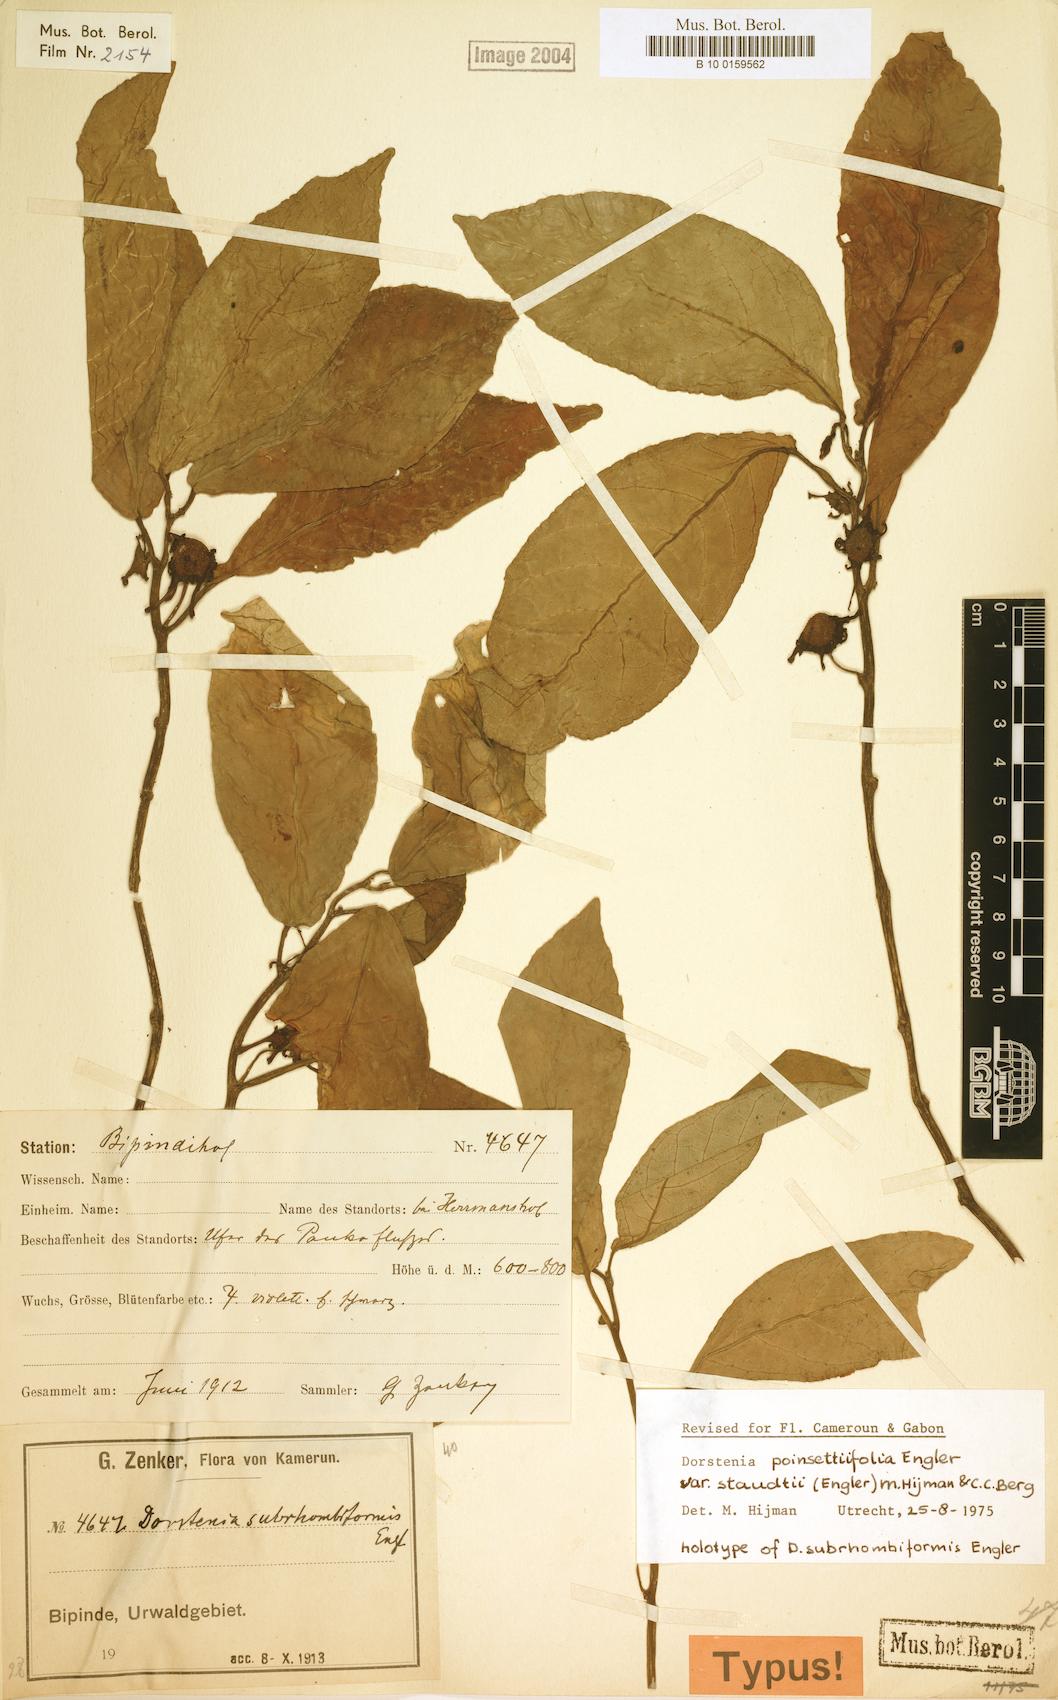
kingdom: Plantae
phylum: Tracheophyta
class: Magnoliopsida
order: Rosales
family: Moraceae
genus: Dorstenia
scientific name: Dorstenia poinsettifolia
